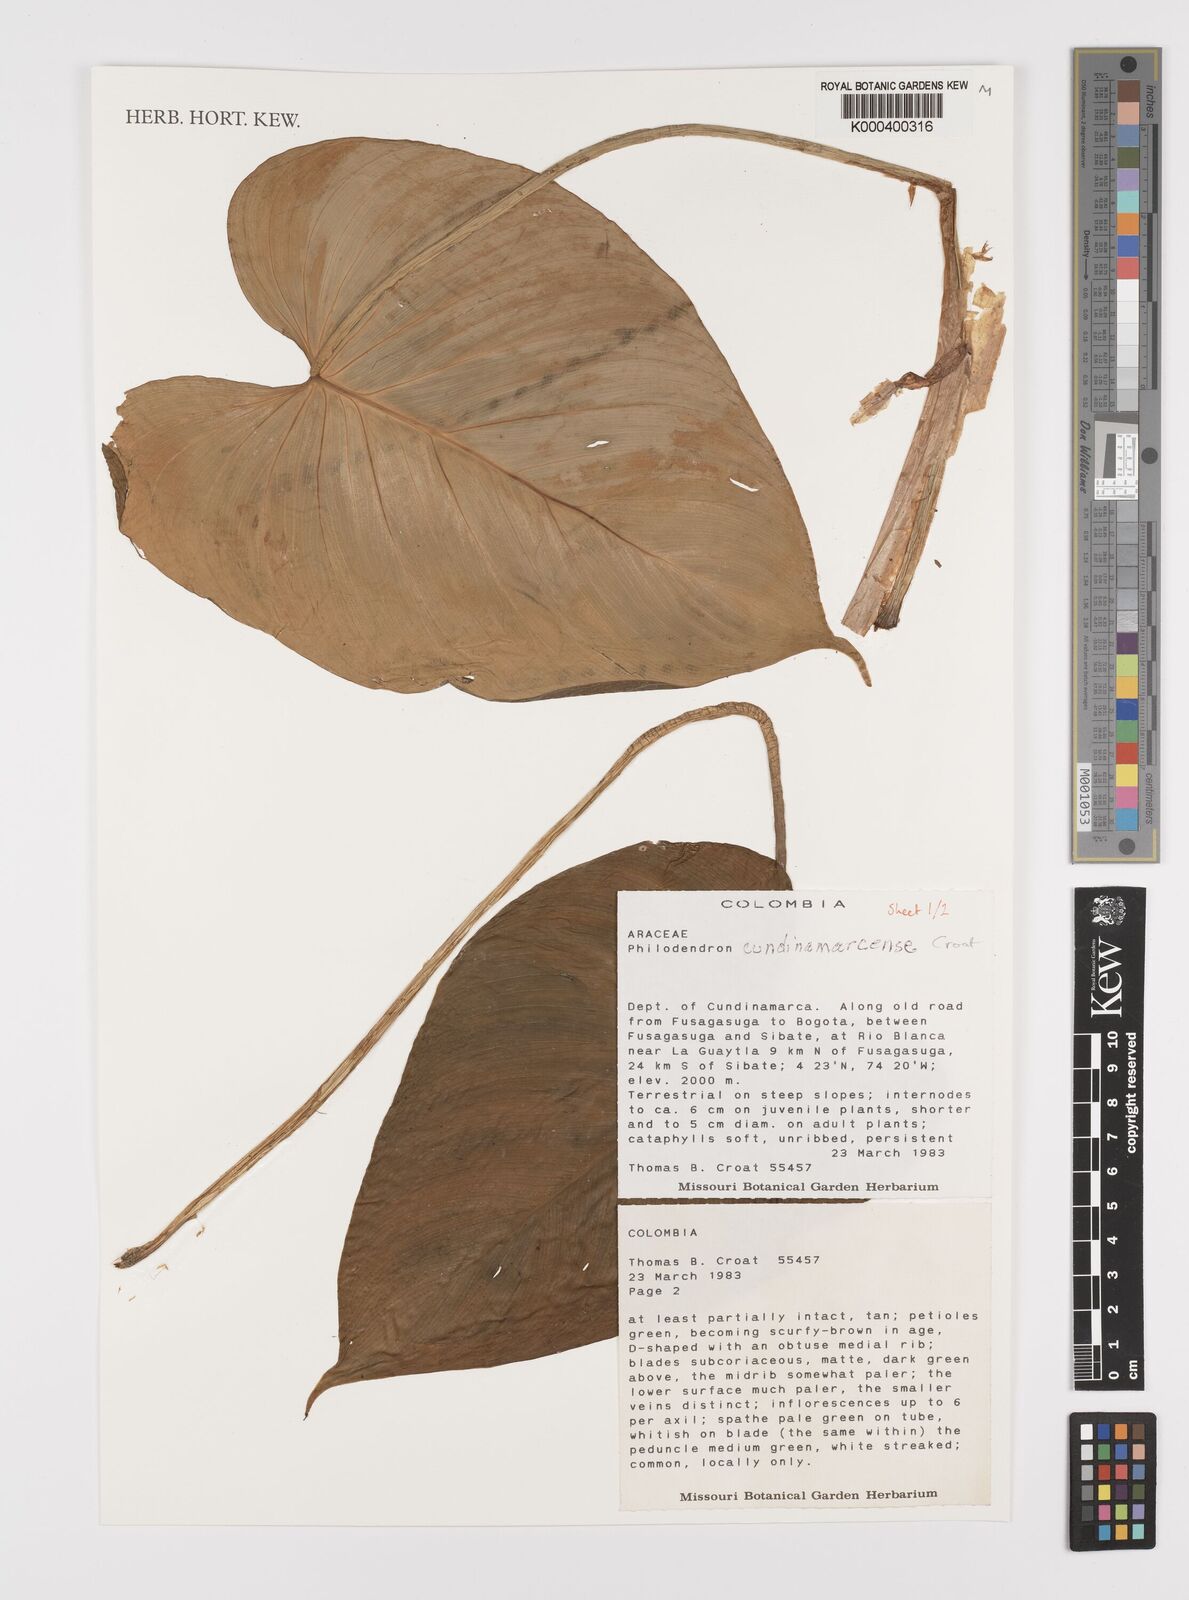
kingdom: Plantae
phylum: Tracheophyta
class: Liliopsida
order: Alismatales
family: Araceae
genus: Philodendron
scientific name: Philodendron
